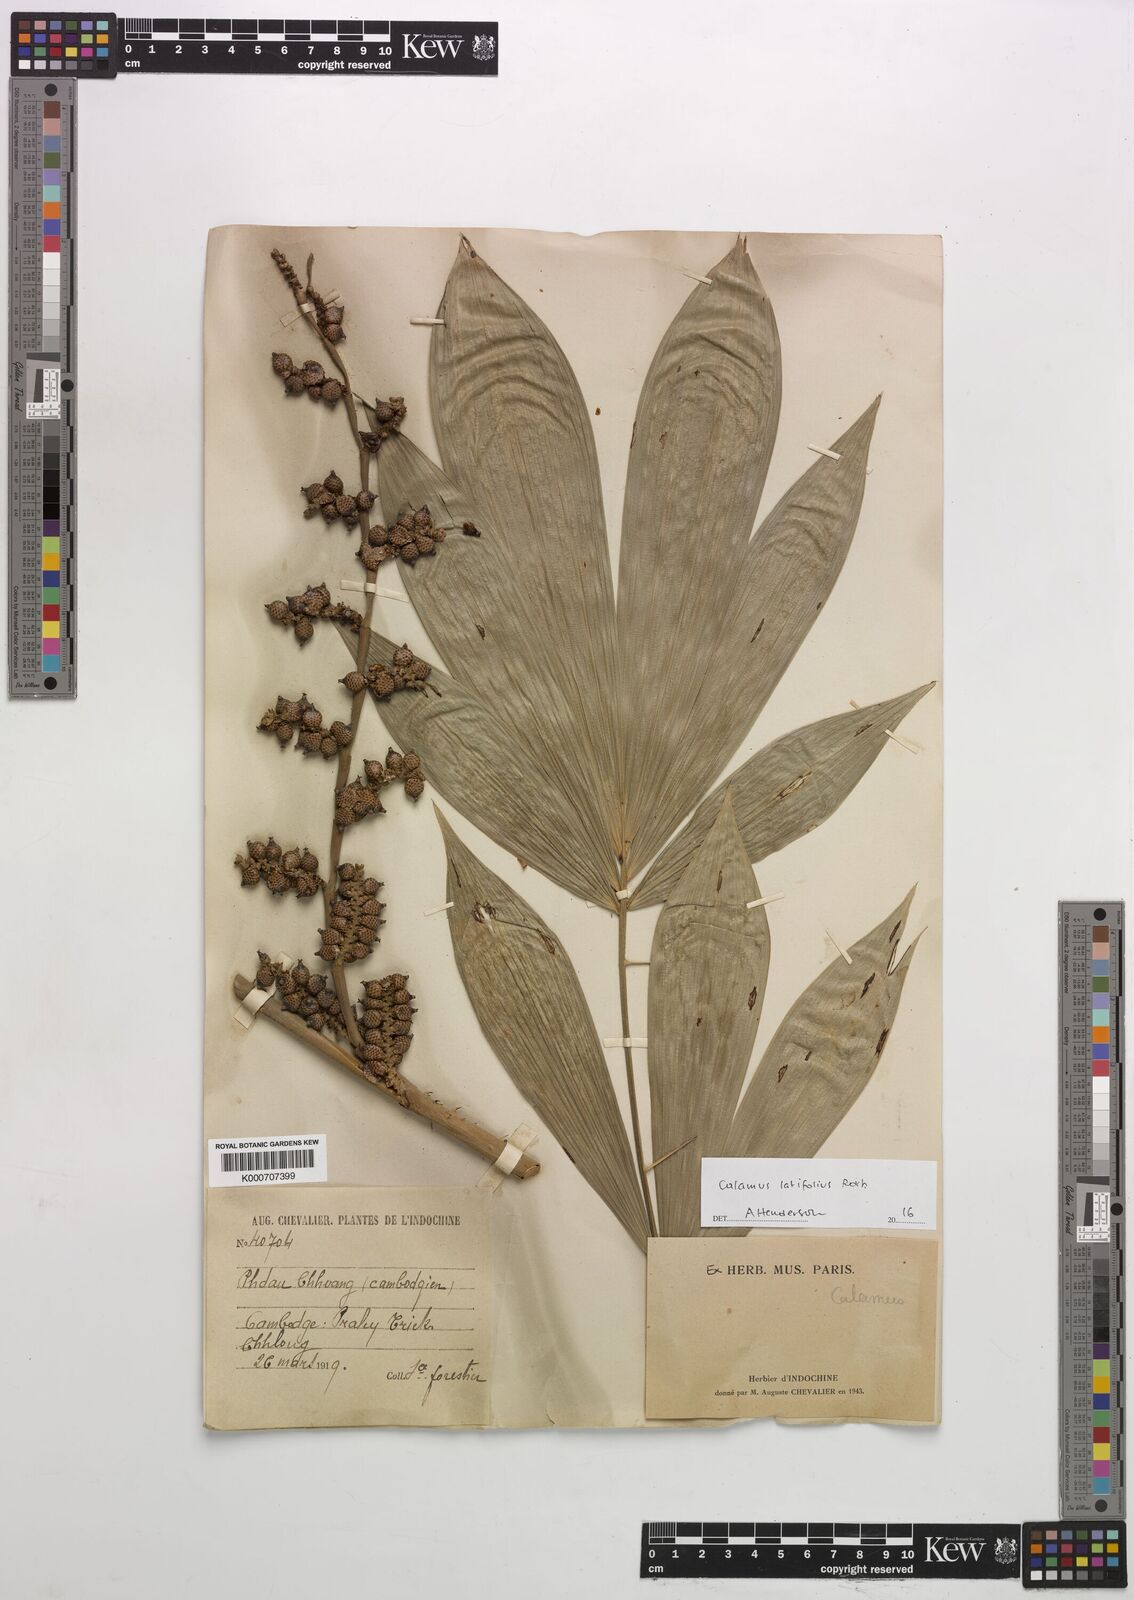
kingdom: Plantae
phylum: Tracheophyta
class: Liliopsida
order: Arecales
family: Arecaceae
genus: Calamus
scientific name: Calamus latifolius
